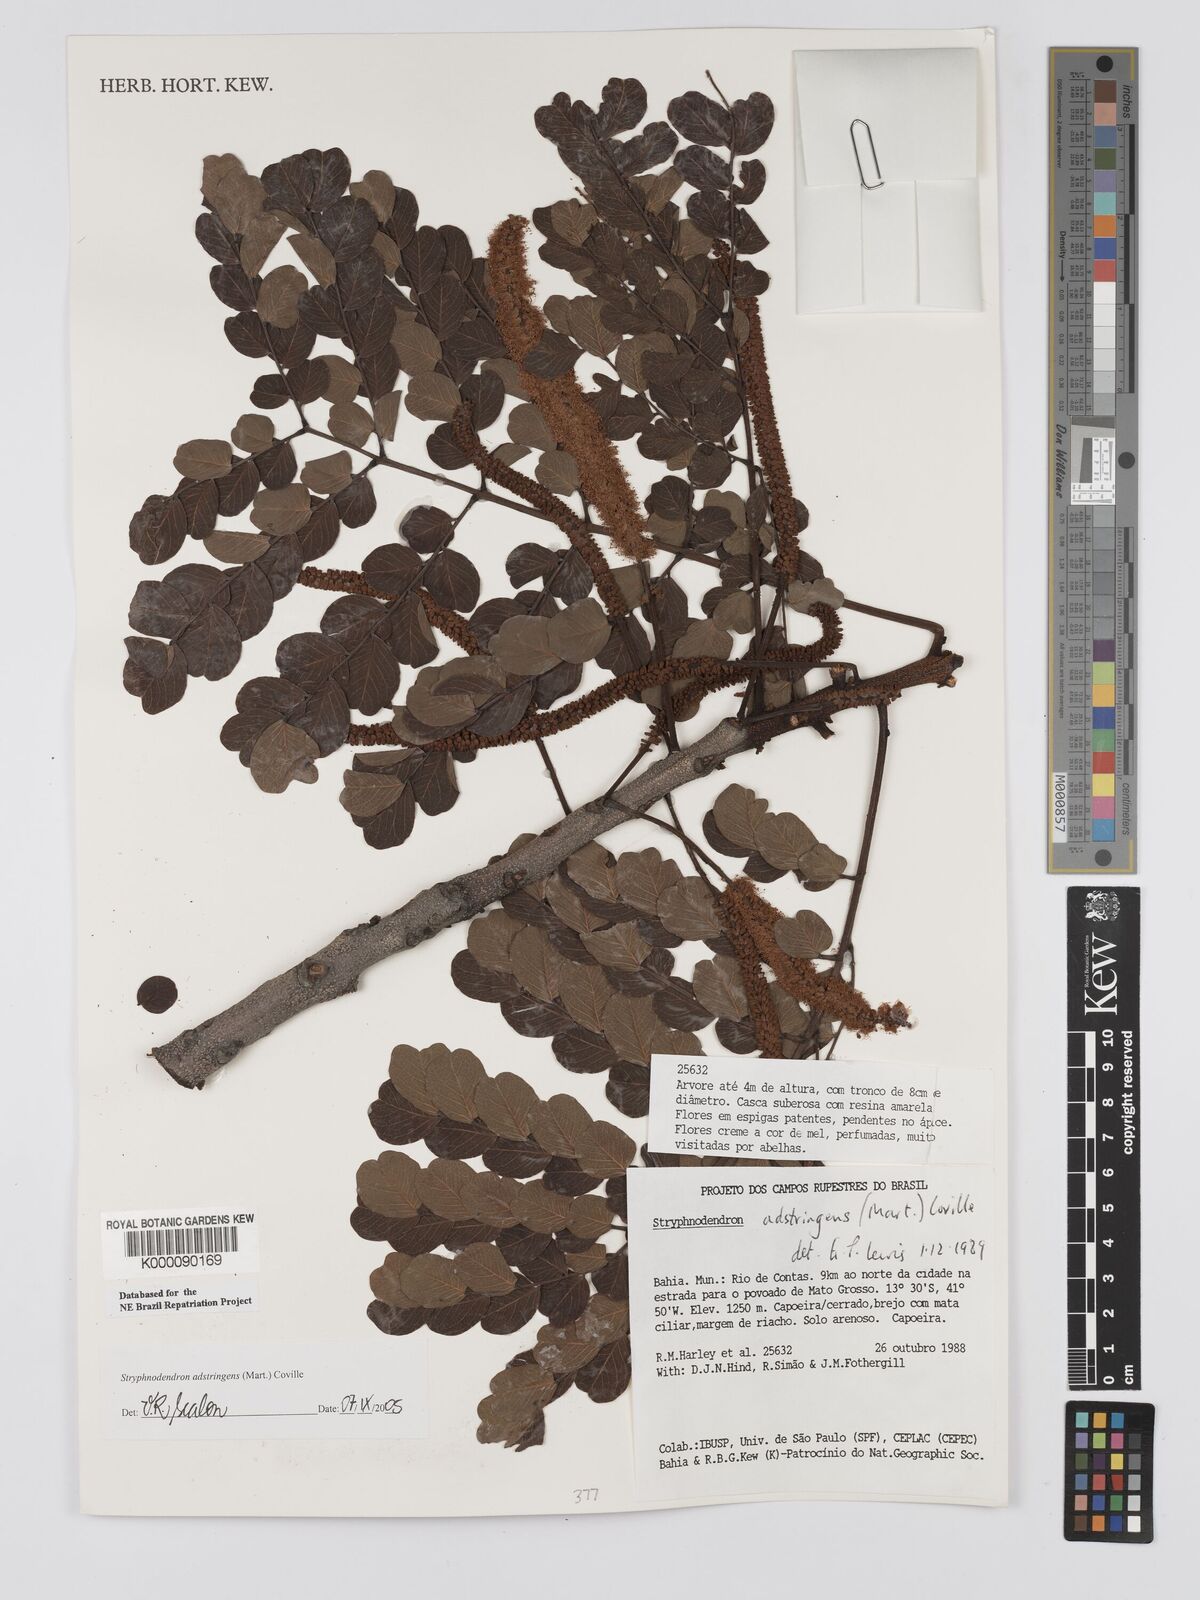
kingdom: Plantae
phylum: Tracheophyta
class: Magnoliopsida
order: Fabales
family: Fabaceae
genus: Stryphnodendron
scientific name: Stryphnodendron adstringens
